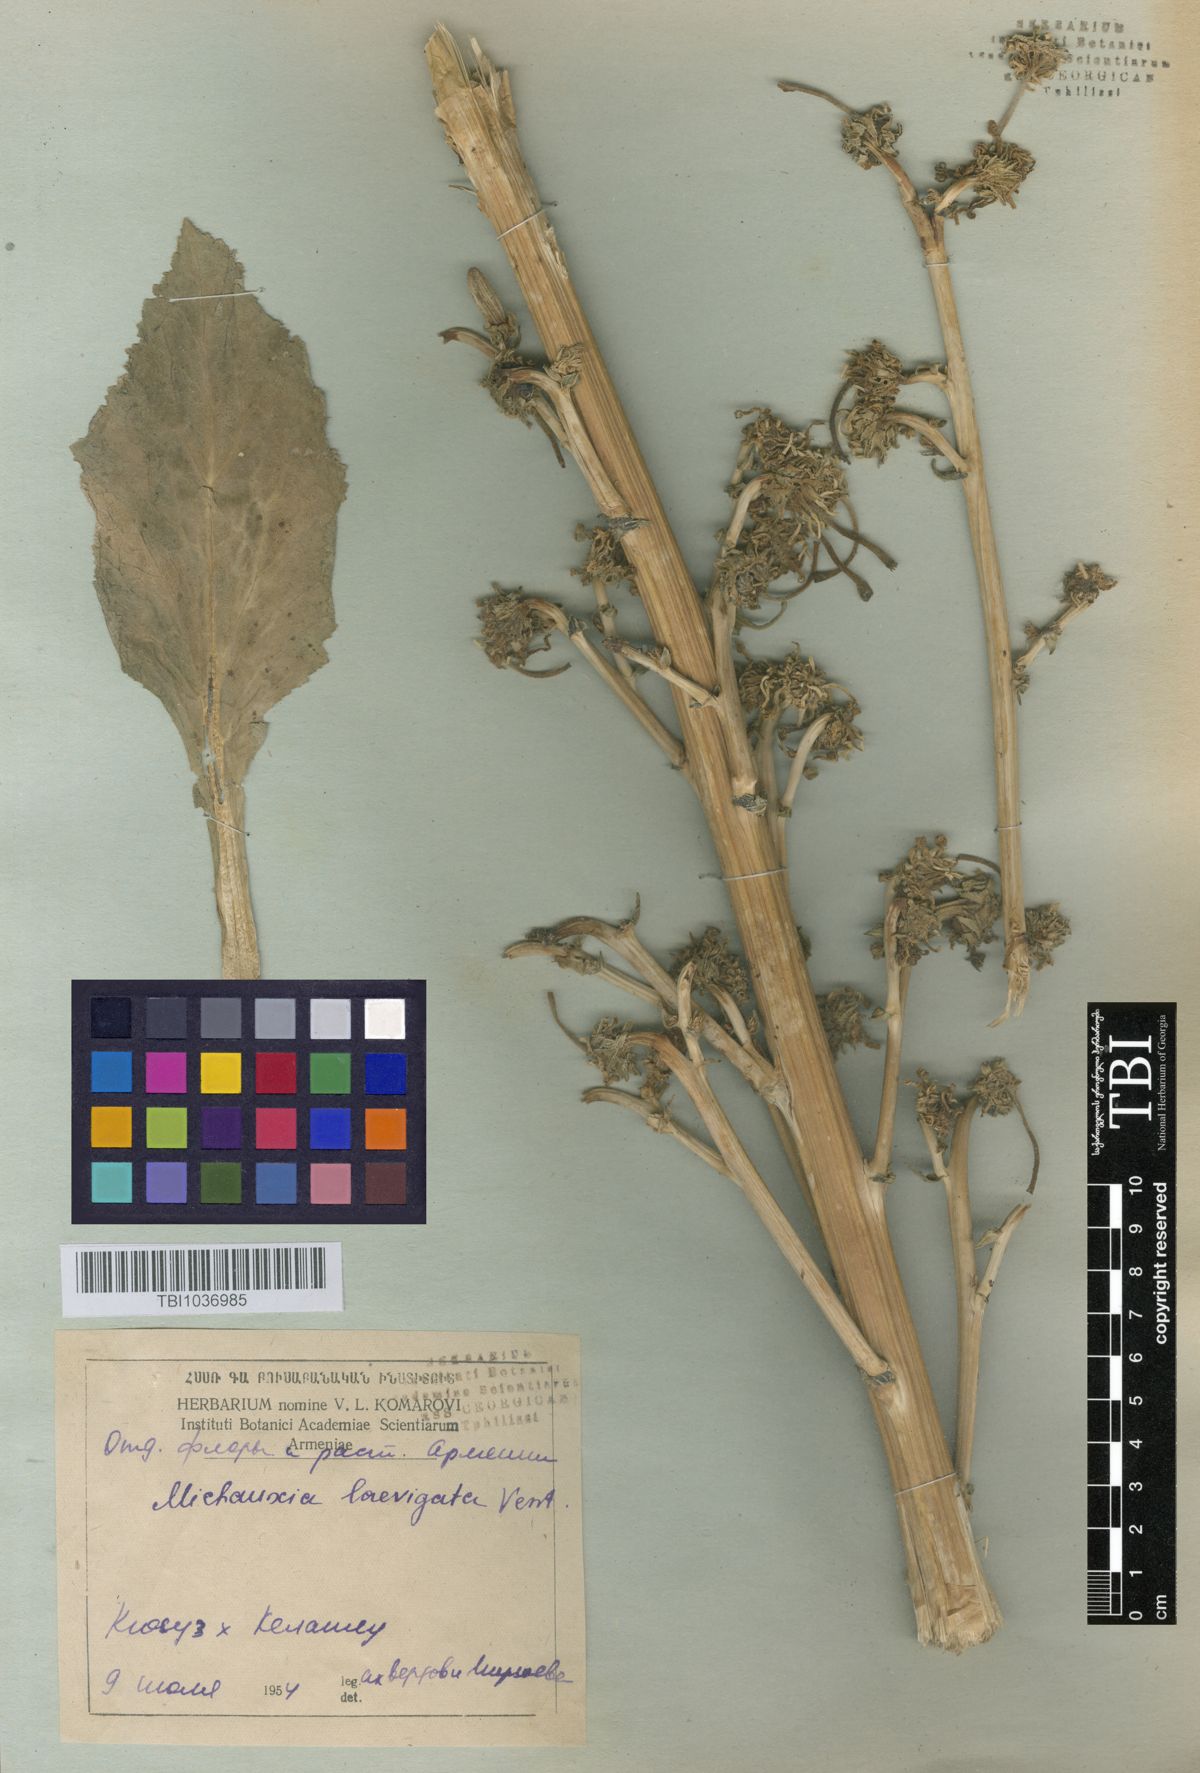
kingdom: Plantae
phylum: Tracheophyta
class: Magnoliopsida
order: Asterales
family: Campanulaceae
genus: Michauxia
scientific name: Michauxia laevigata
